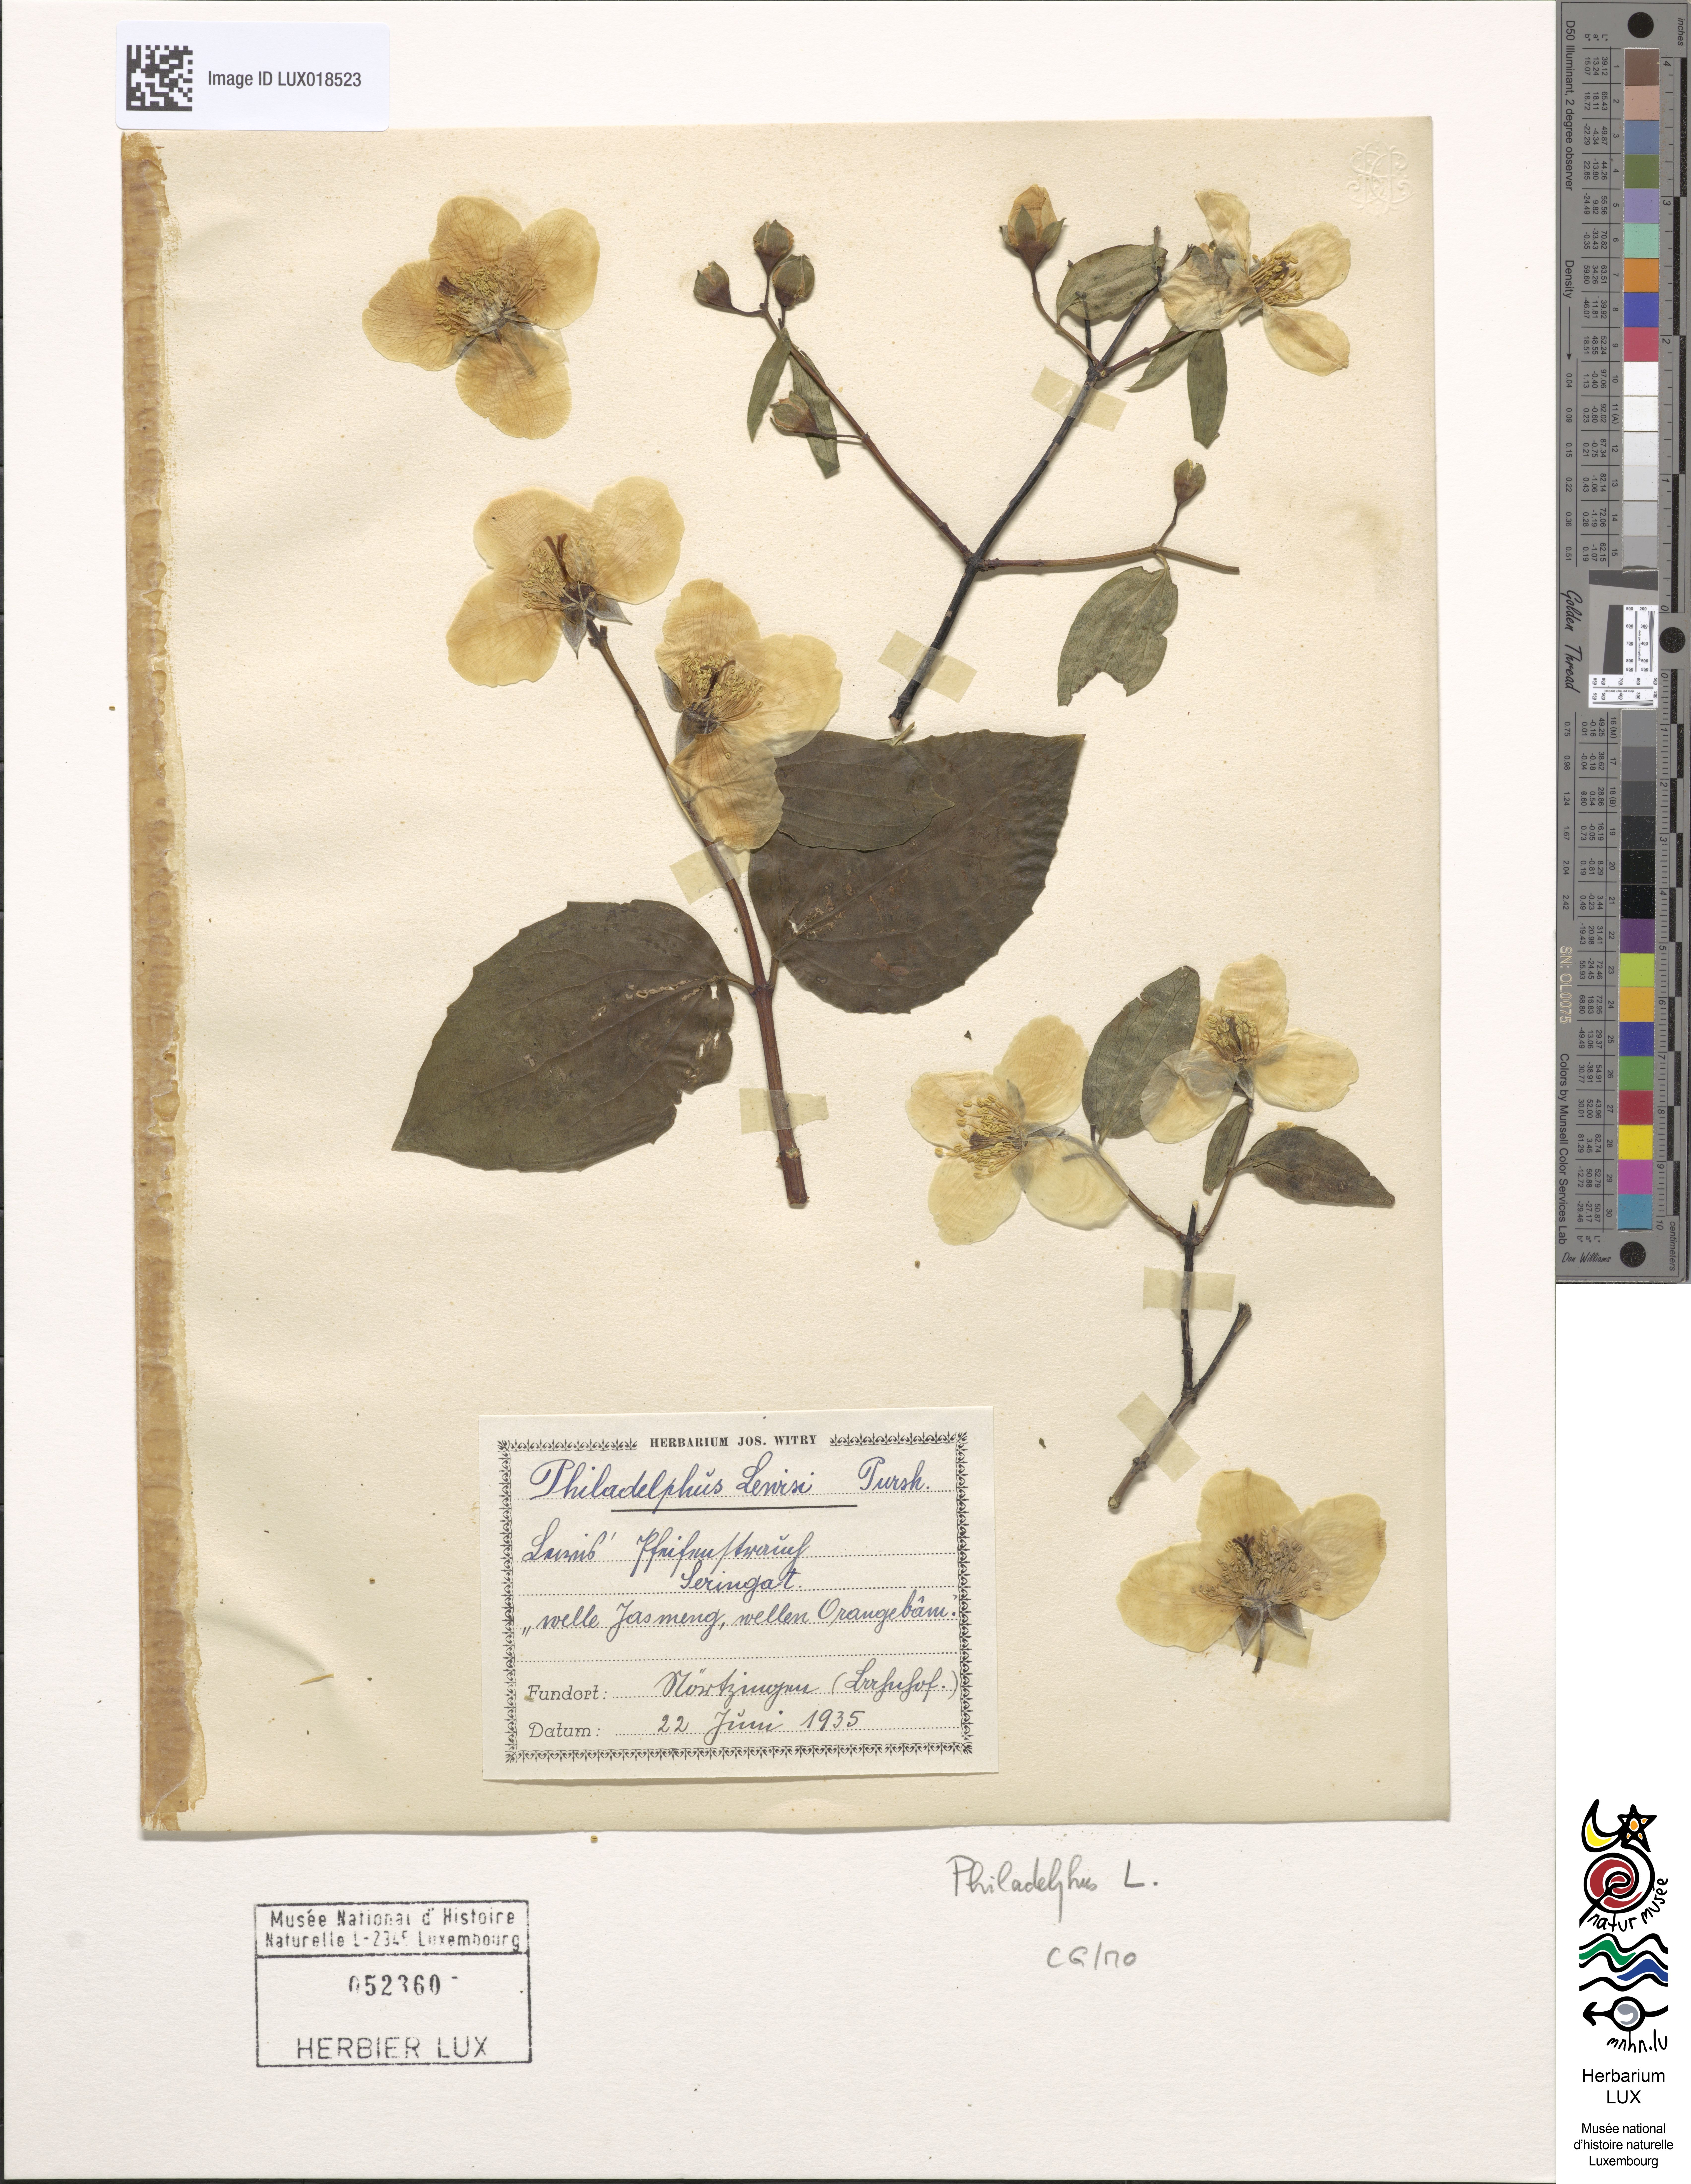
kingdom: Plantae
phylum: Tracheophyta
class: Magnoliopsida
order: Cornales
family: Hydrangeaceae
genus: Philadelphus
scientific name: Philadelphus
